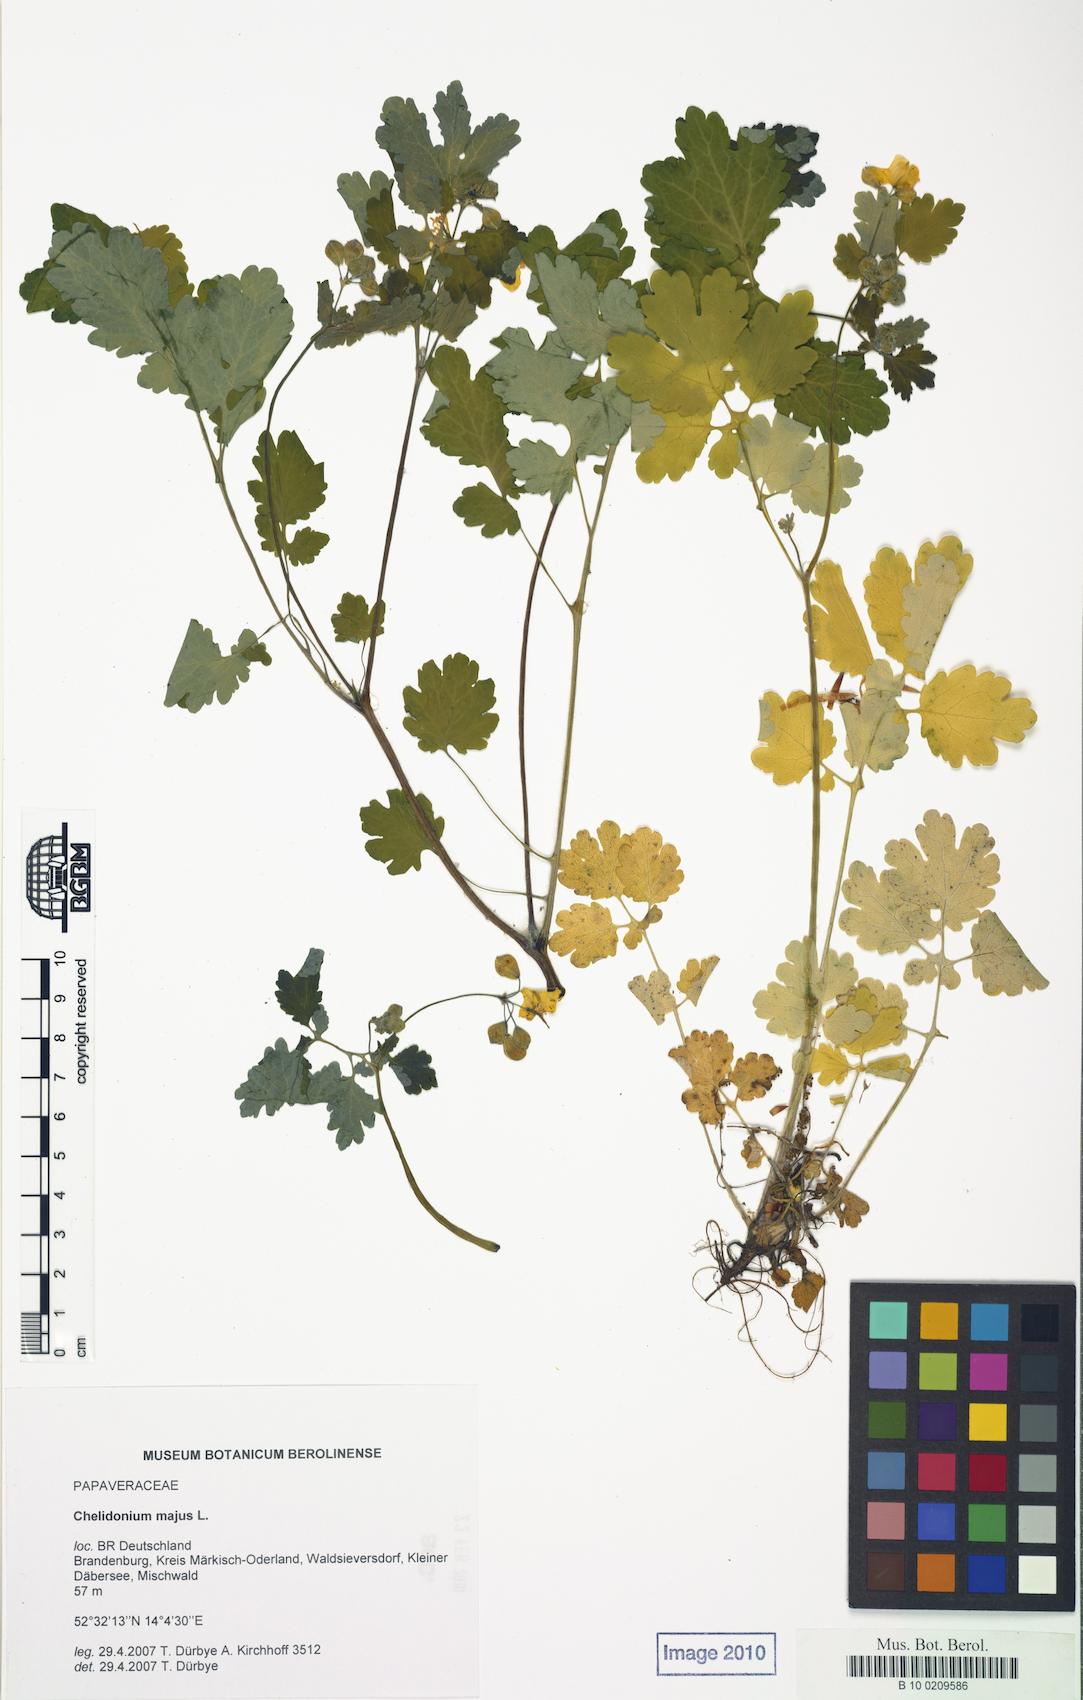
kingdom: Plantae
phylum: Tracheophyta
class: Magnoliopsida
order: Ranunculales
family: Papaveraceae
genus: Chelidonium
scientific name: Chelidonium majus
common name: Greater celandine
